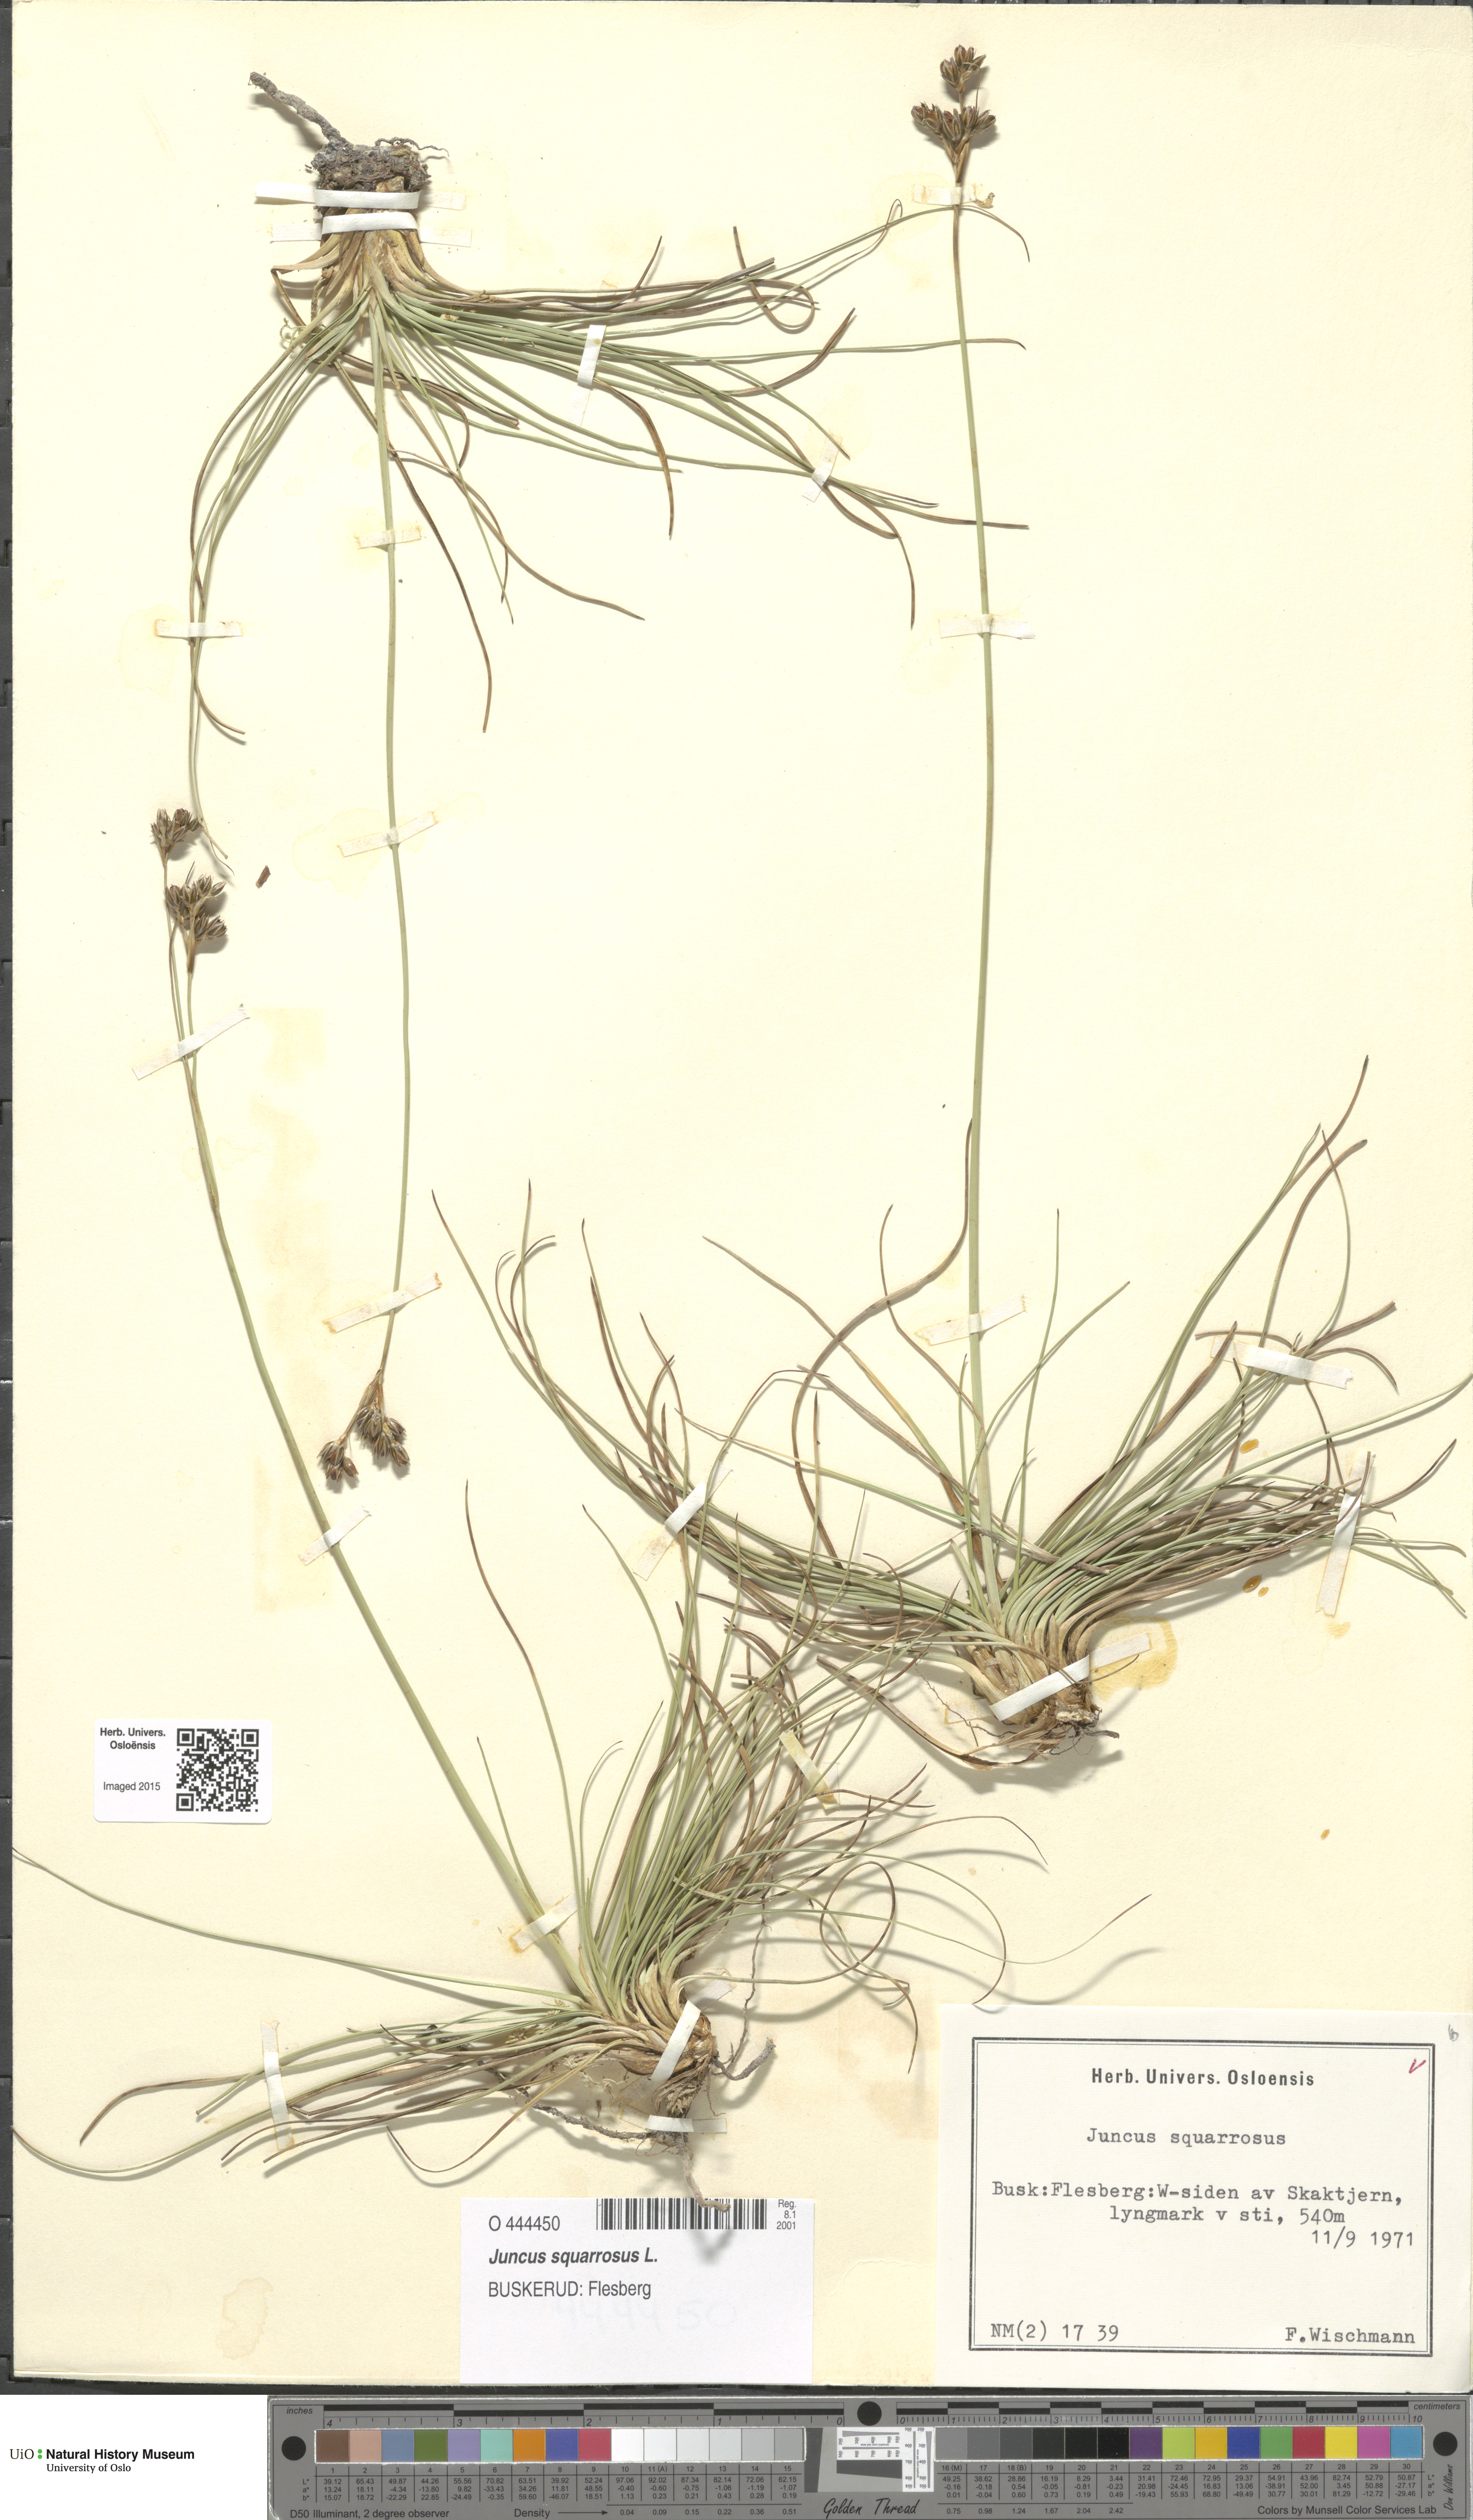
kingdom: Plantae
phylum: Tracheophyta
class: Liliopsida
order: Poales
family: Juncaceae
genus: Juncus
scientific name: Juncus squarrosus
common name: Heath rush
